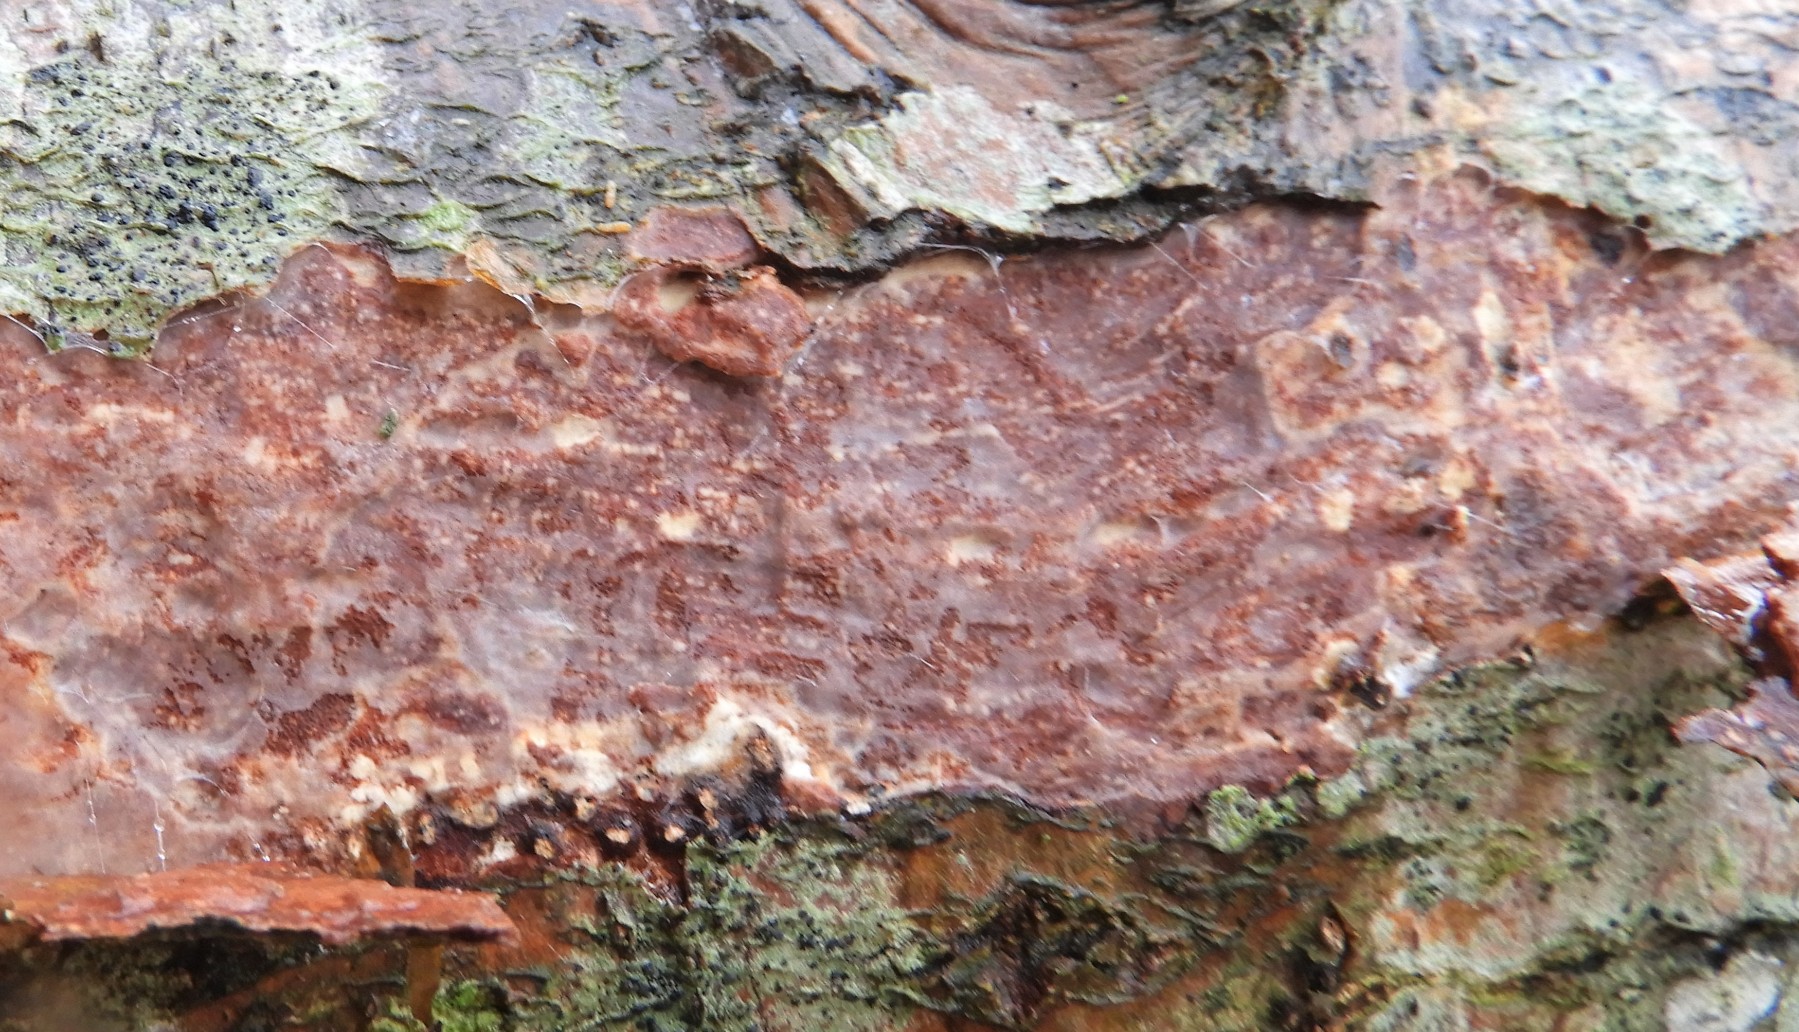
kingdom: Fungi
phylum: Basidiomycota
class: Agaricomycetes
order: Corticiales
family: Vuilleminiaceae
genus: Vuilleminia
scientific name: Vuilleminia comedens
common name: almindelig barksprænger
